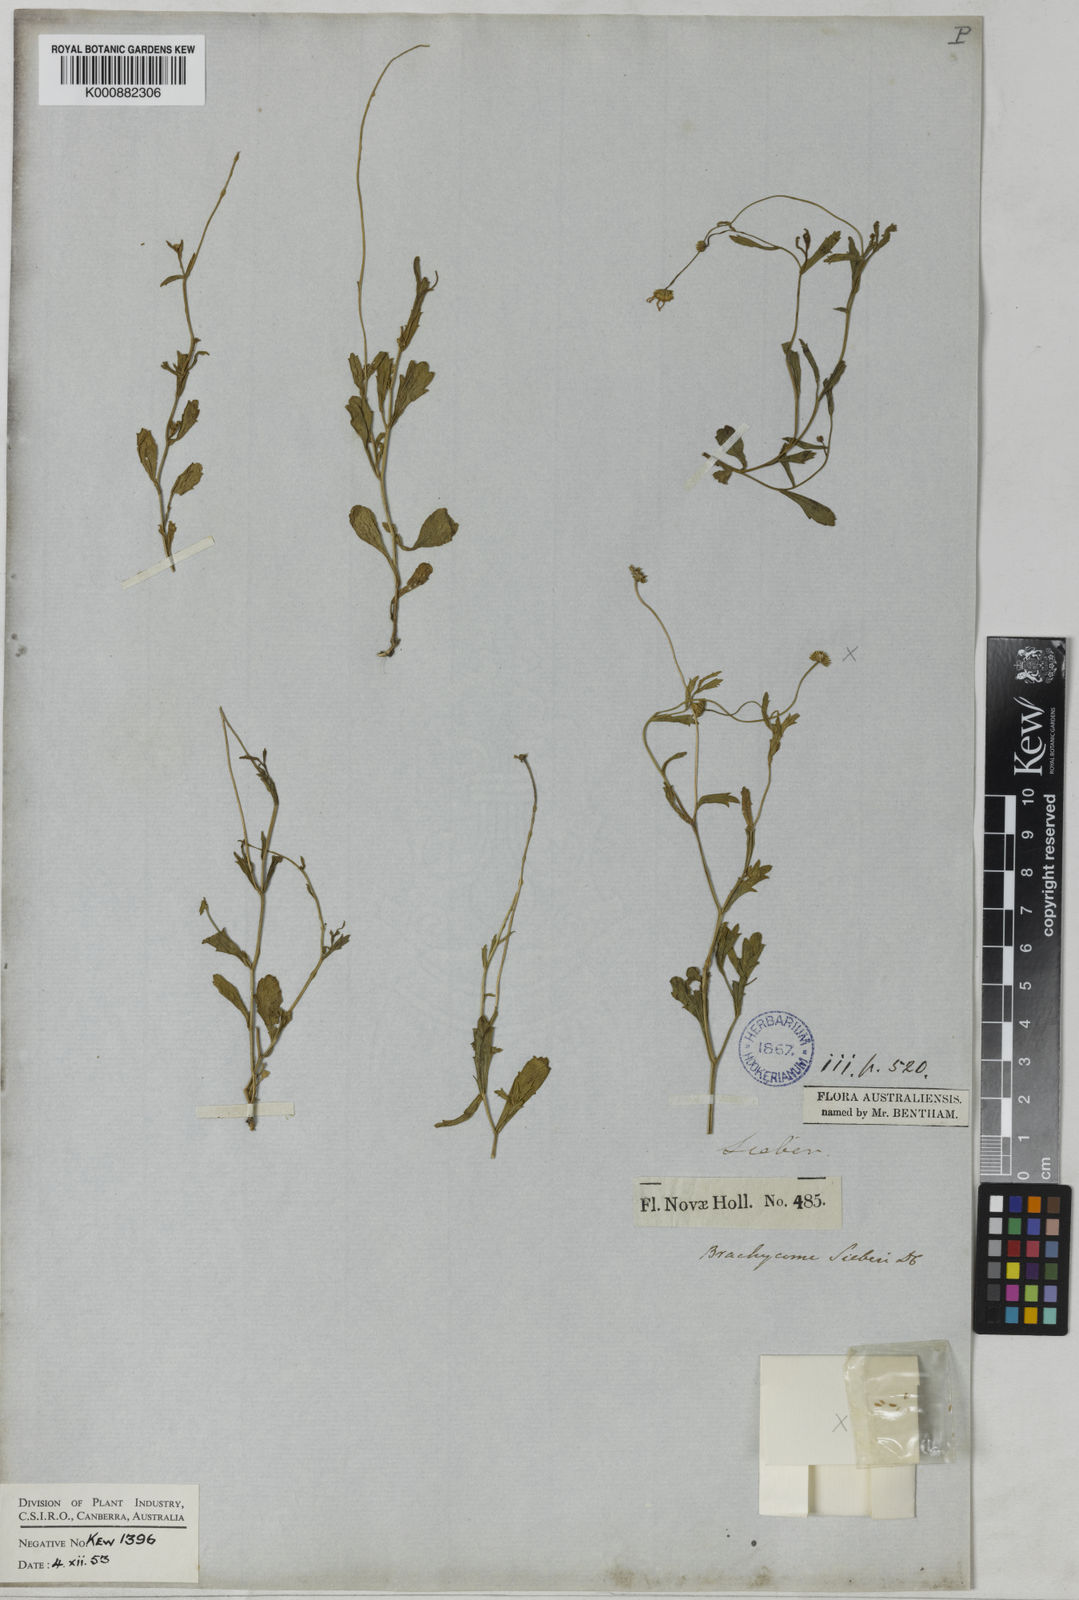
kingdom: Plantae
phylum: Tracheophyta
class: Magnoliopsida
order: Asterales
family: Asteraceae
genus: Brachyscome
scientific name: Brachyscome aculeata
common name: Hill daisy
